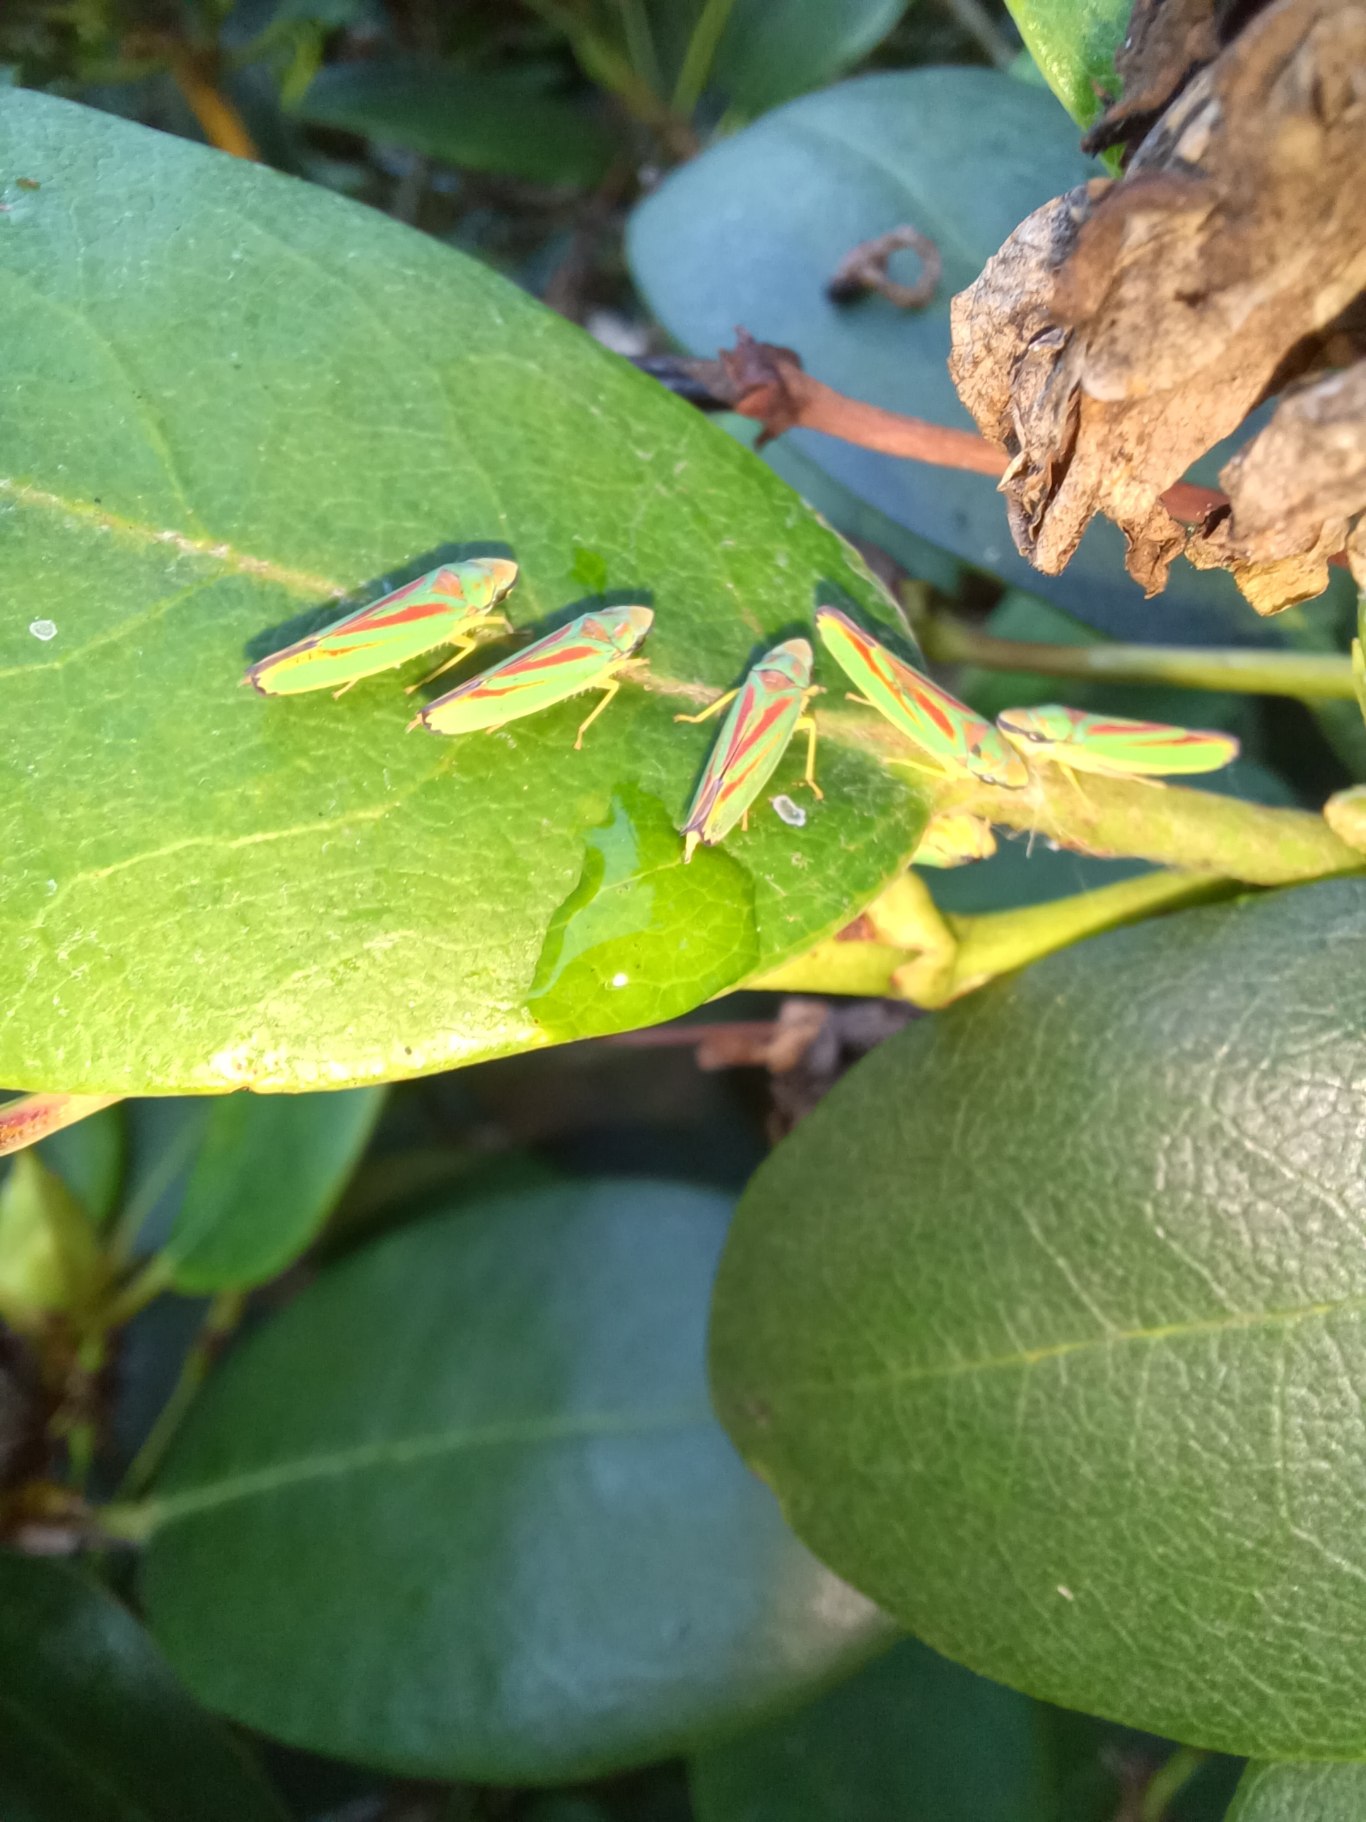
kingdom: Animalia
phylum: Arthropoda
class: Insecta
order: Hemiptera
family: Cicadellidae
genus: Graphocephala
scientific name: Graphocephala fennahi
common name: Rododendroncikade
